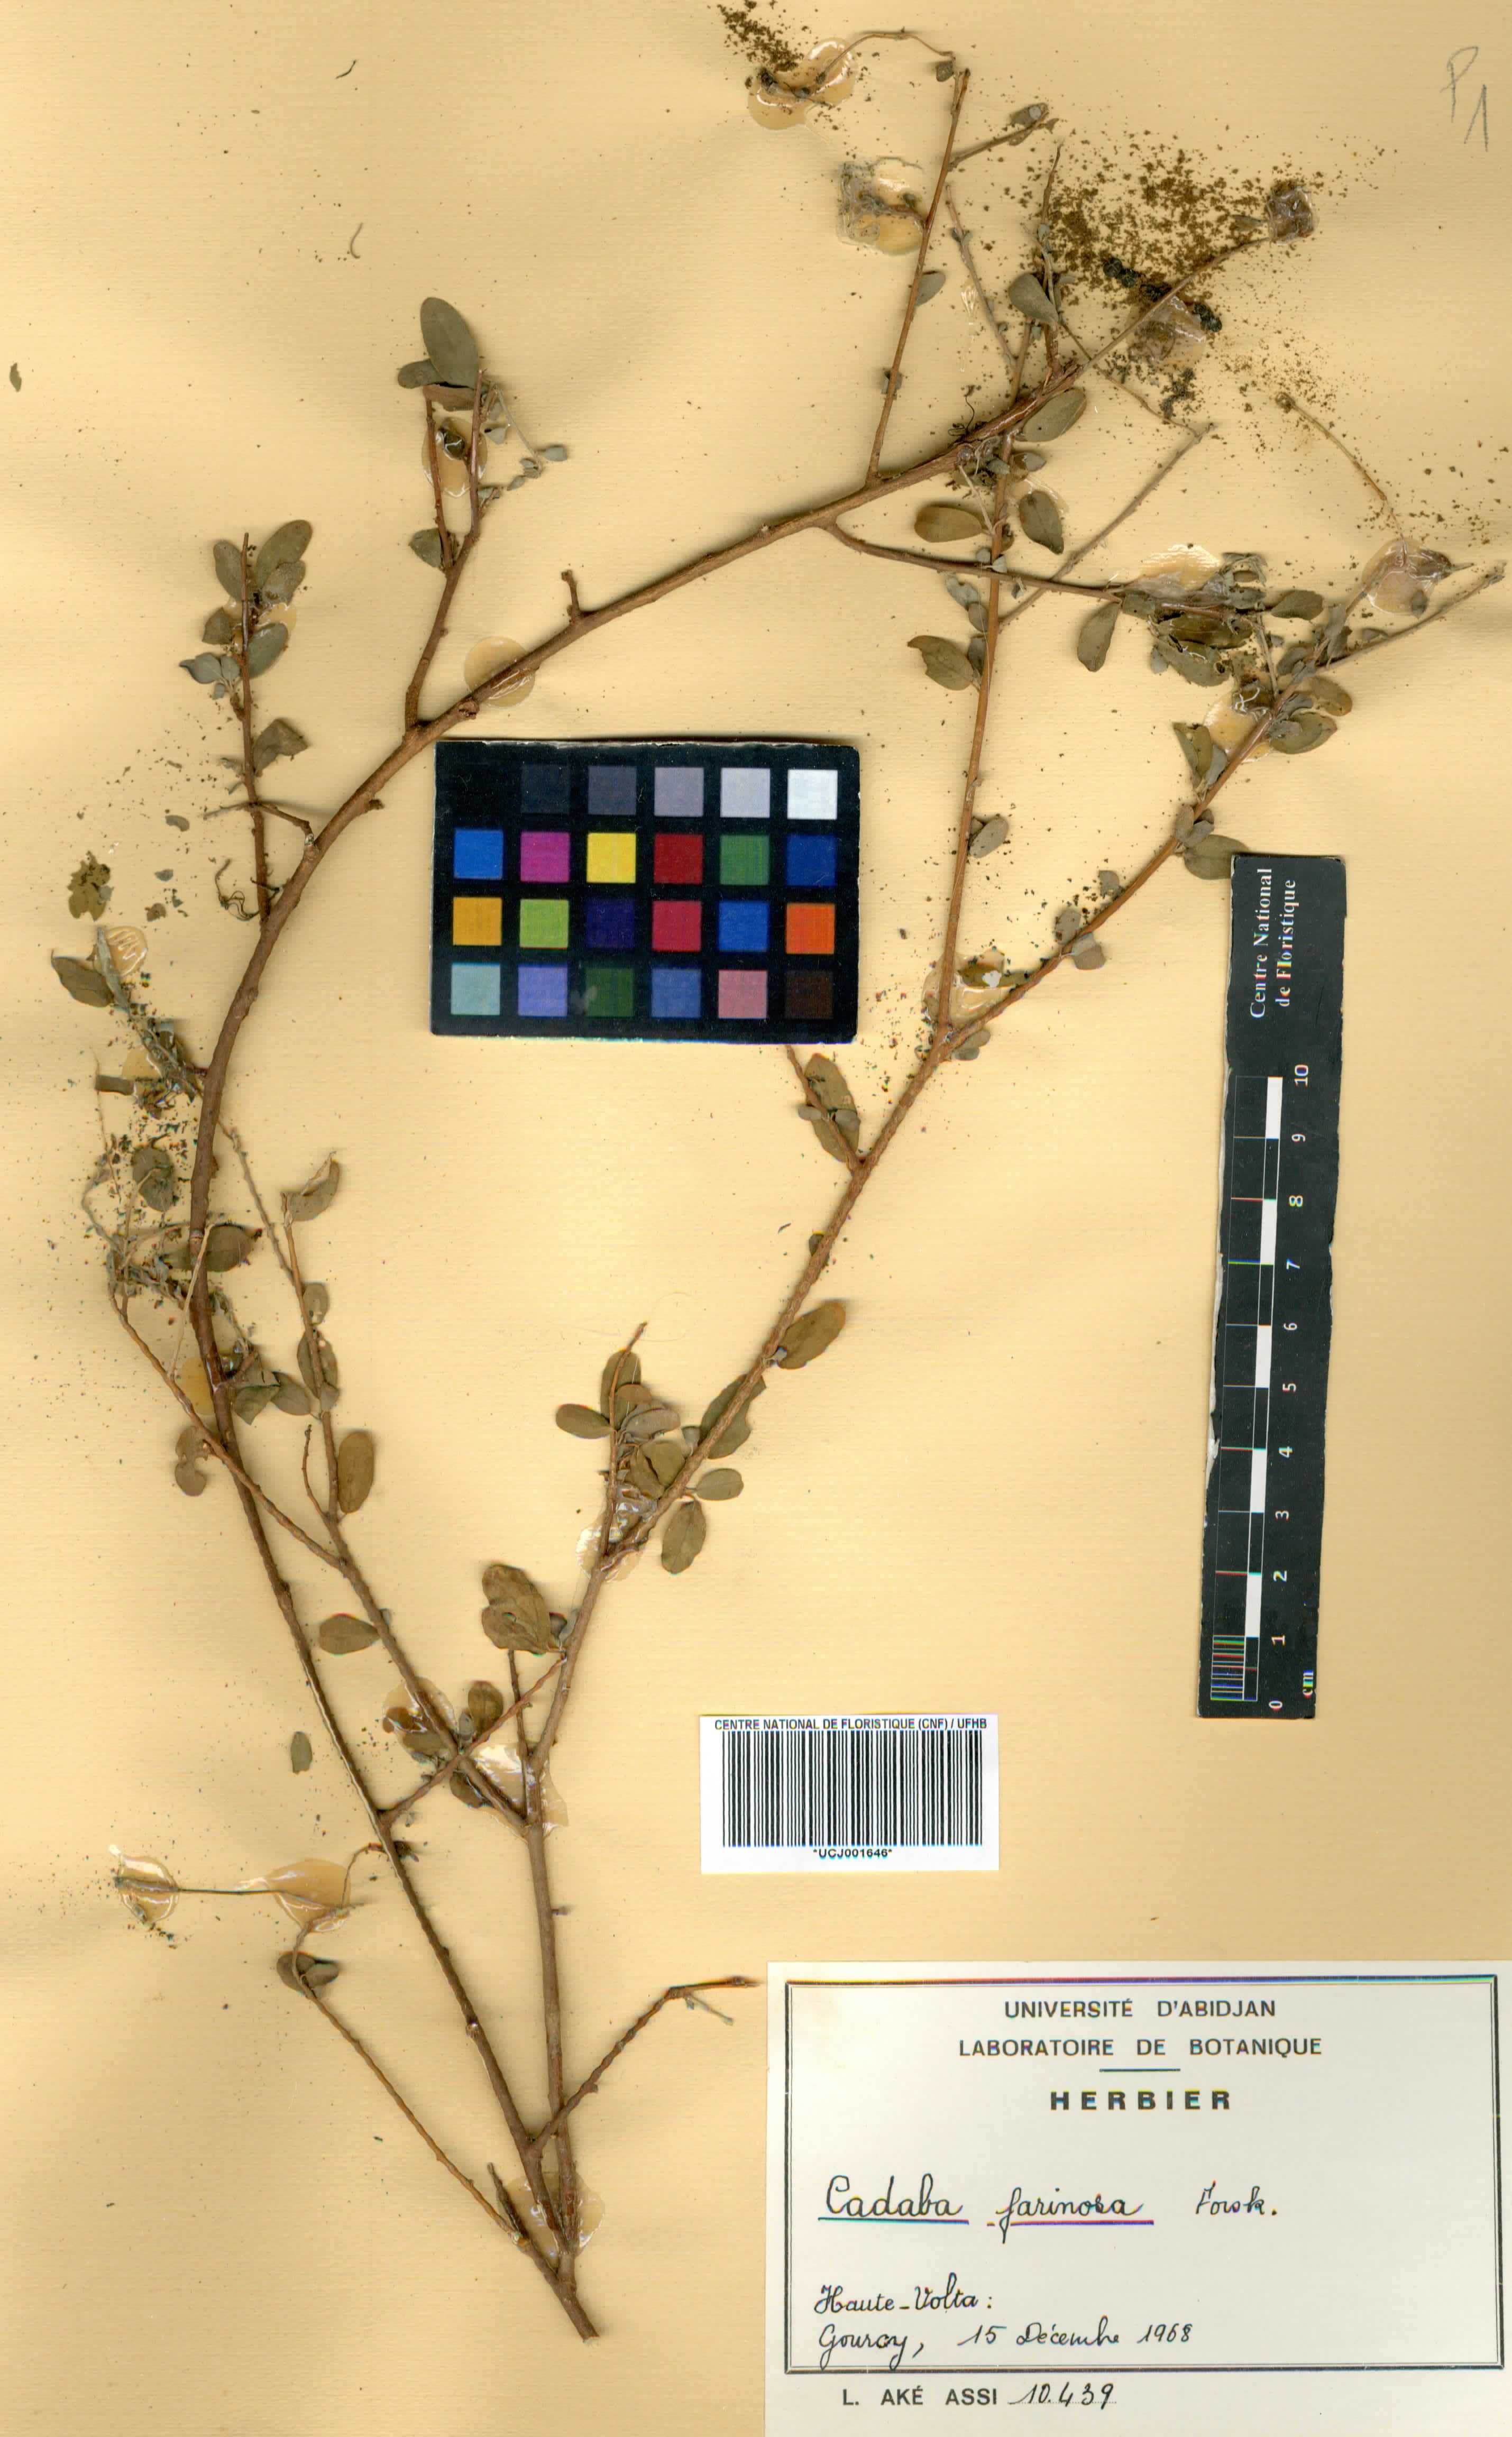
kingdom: Plantae
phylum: Tracheophyta
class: Magnoliopsida
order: Brassicales
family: Capparaceae
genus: Cadaba
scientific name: Cadaba farinosa
